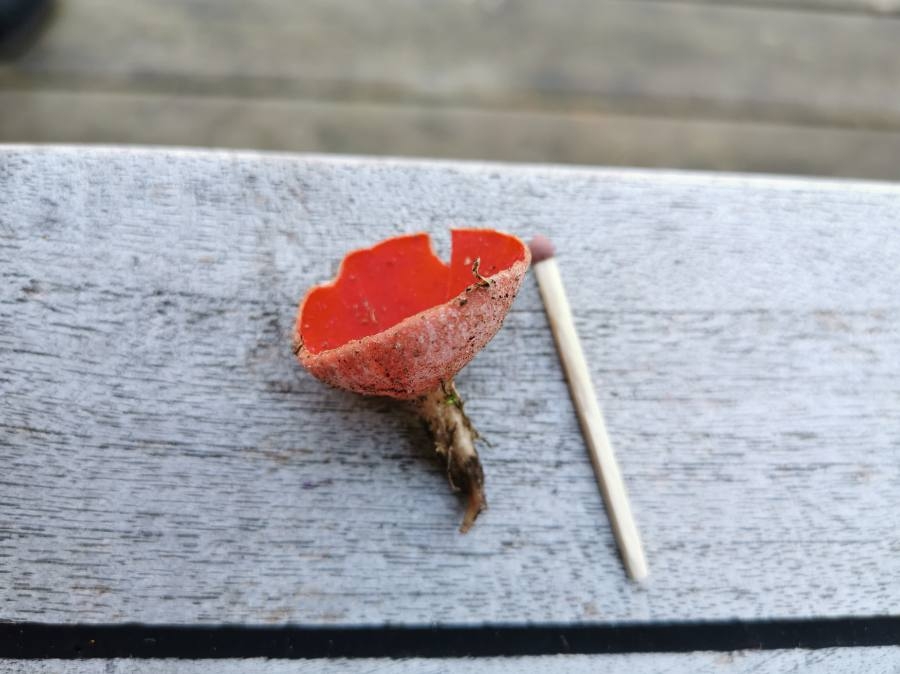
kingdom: Fungi
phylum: Ascomycota
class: Pezizomycetes
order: Pezizales
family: Sarcoscyphaceae
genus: Sarcoscypha
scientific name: Sarcoscypha
